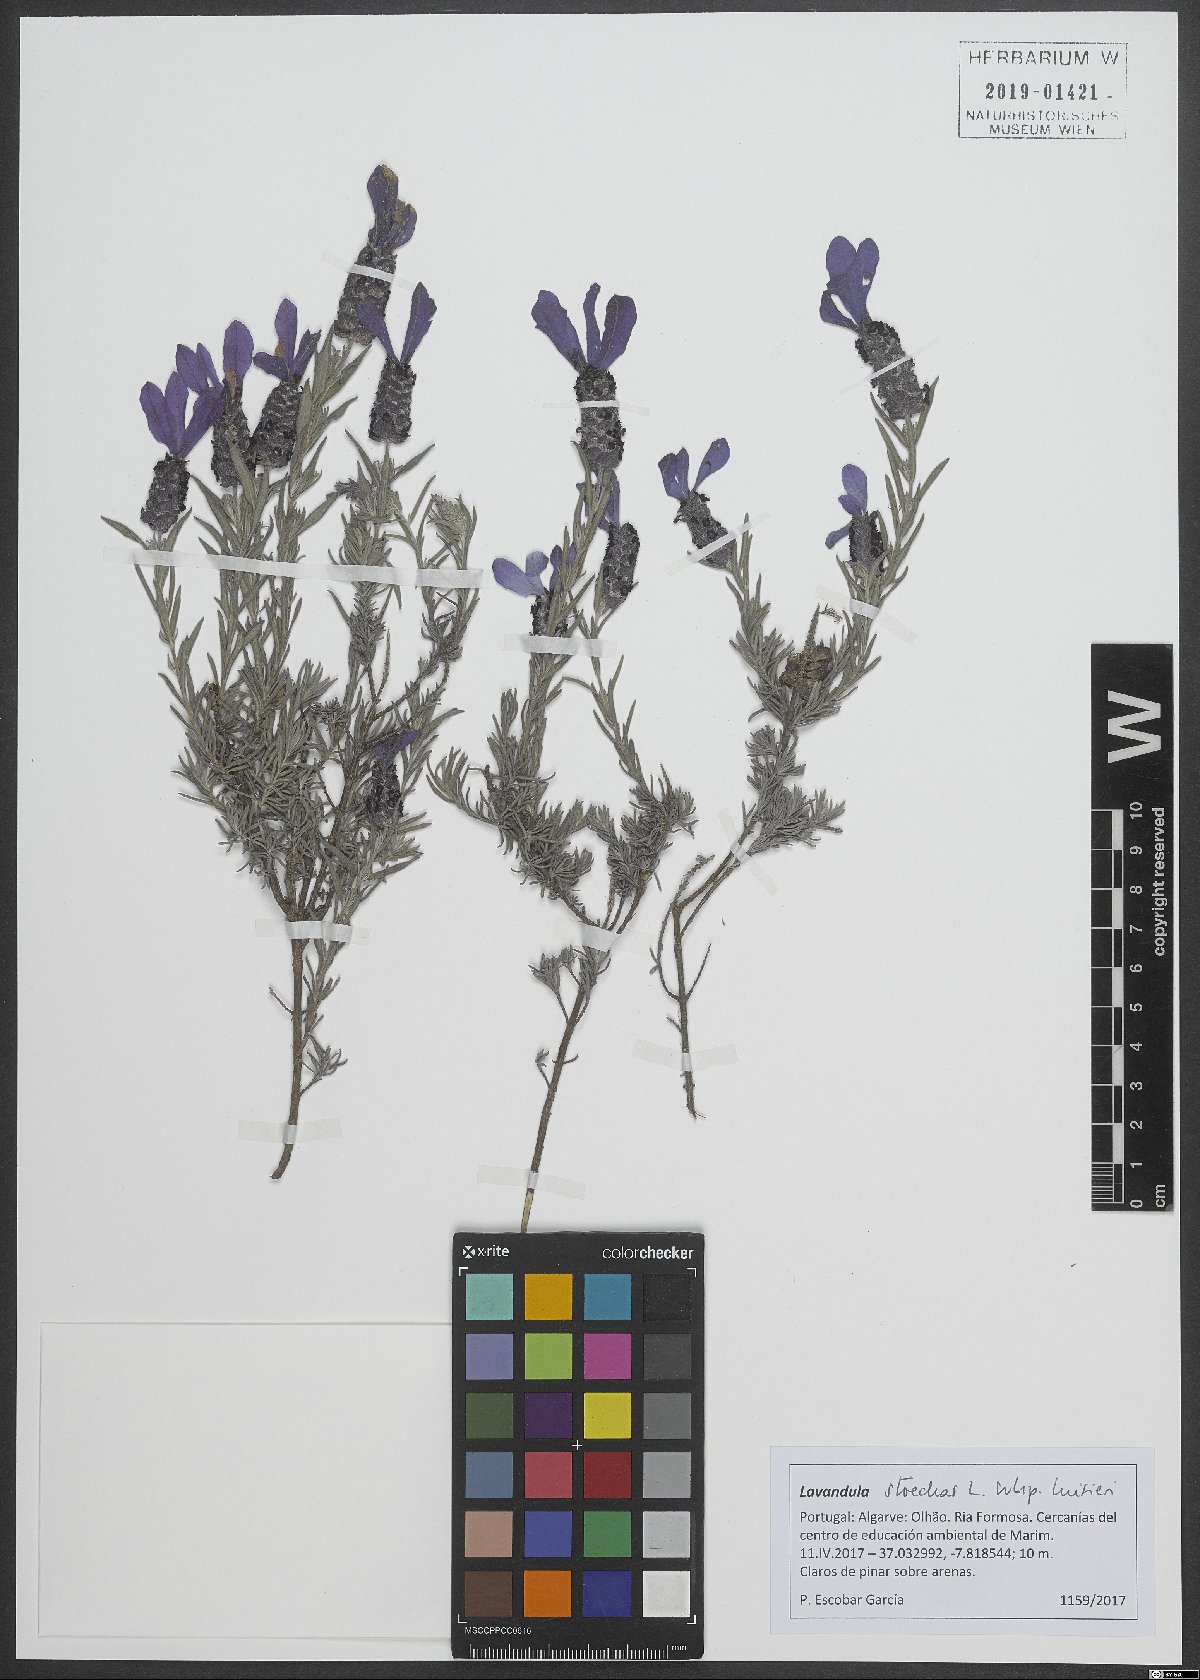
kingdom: Plantae
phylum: Tracheophyta
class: Magnoliopsida
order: Lamiales
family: Lamiaceae
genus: Lavandula
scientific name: Lavandula stoechas
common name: French lavender
